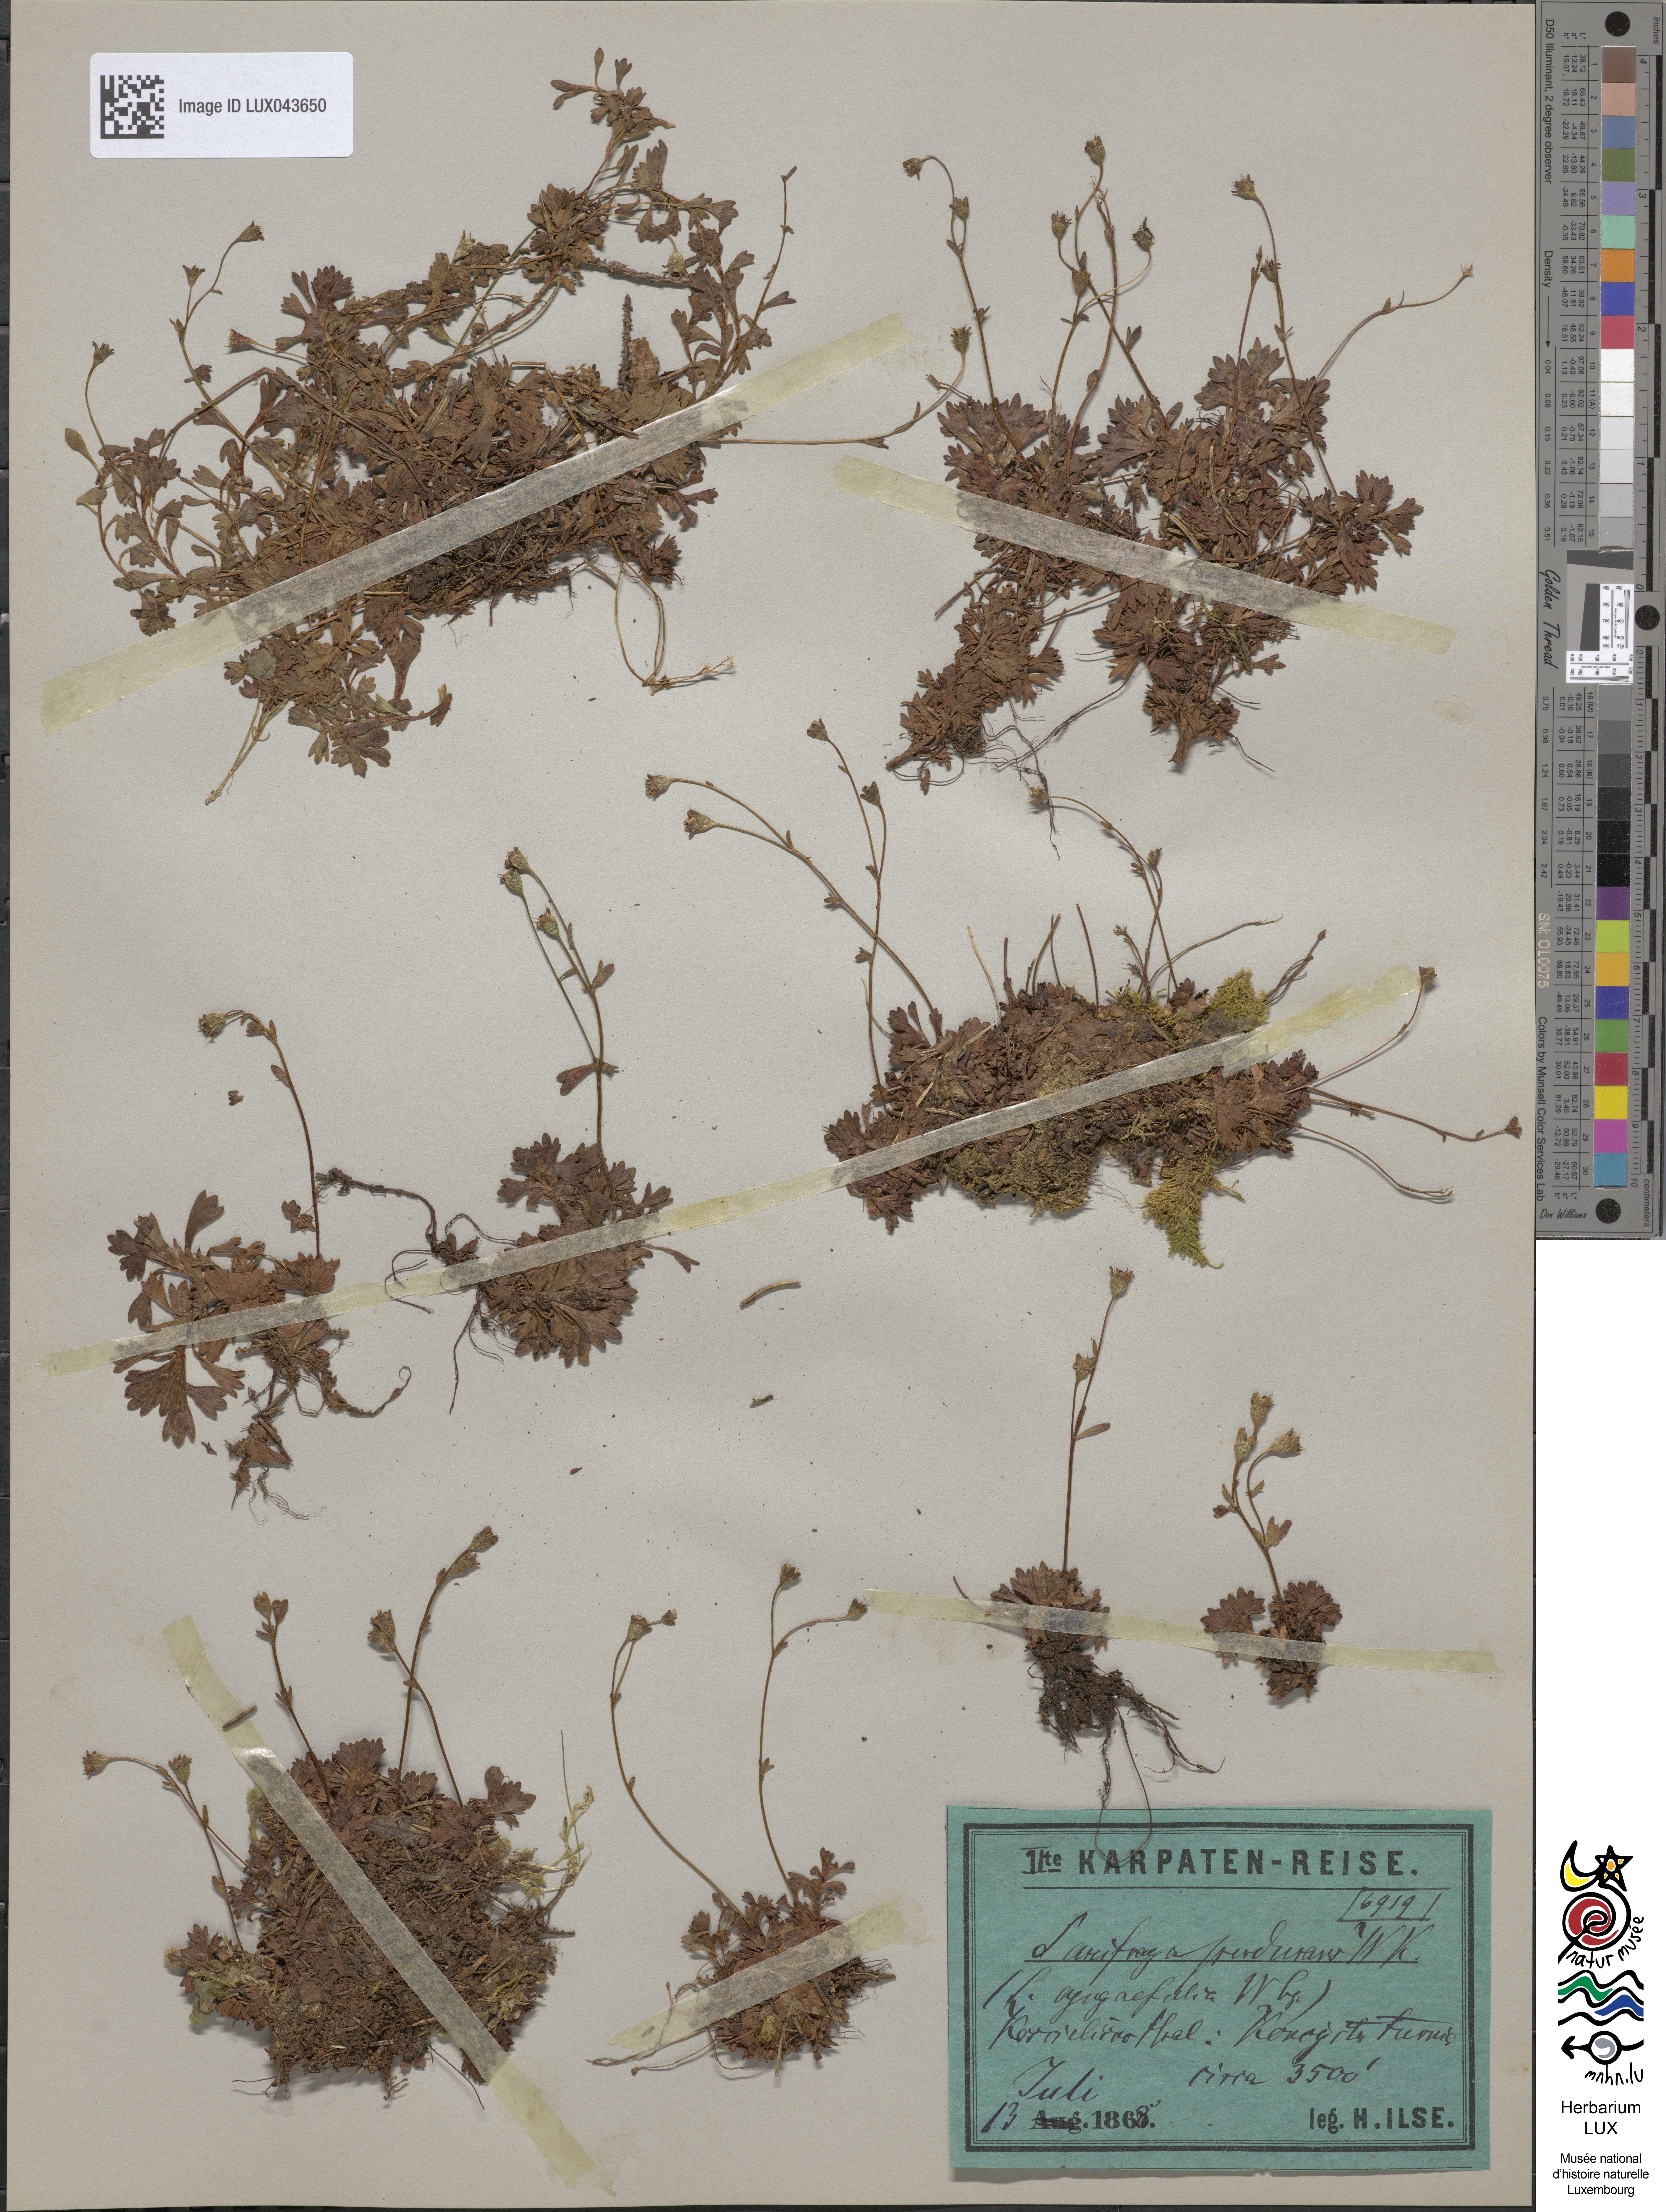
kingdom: Plantae
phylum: Tracheophyta
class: Magnoliopsida
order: Saxifragales
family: Saxifragaceae
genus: Saxifraga
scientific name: Saxifraga pedemontana
